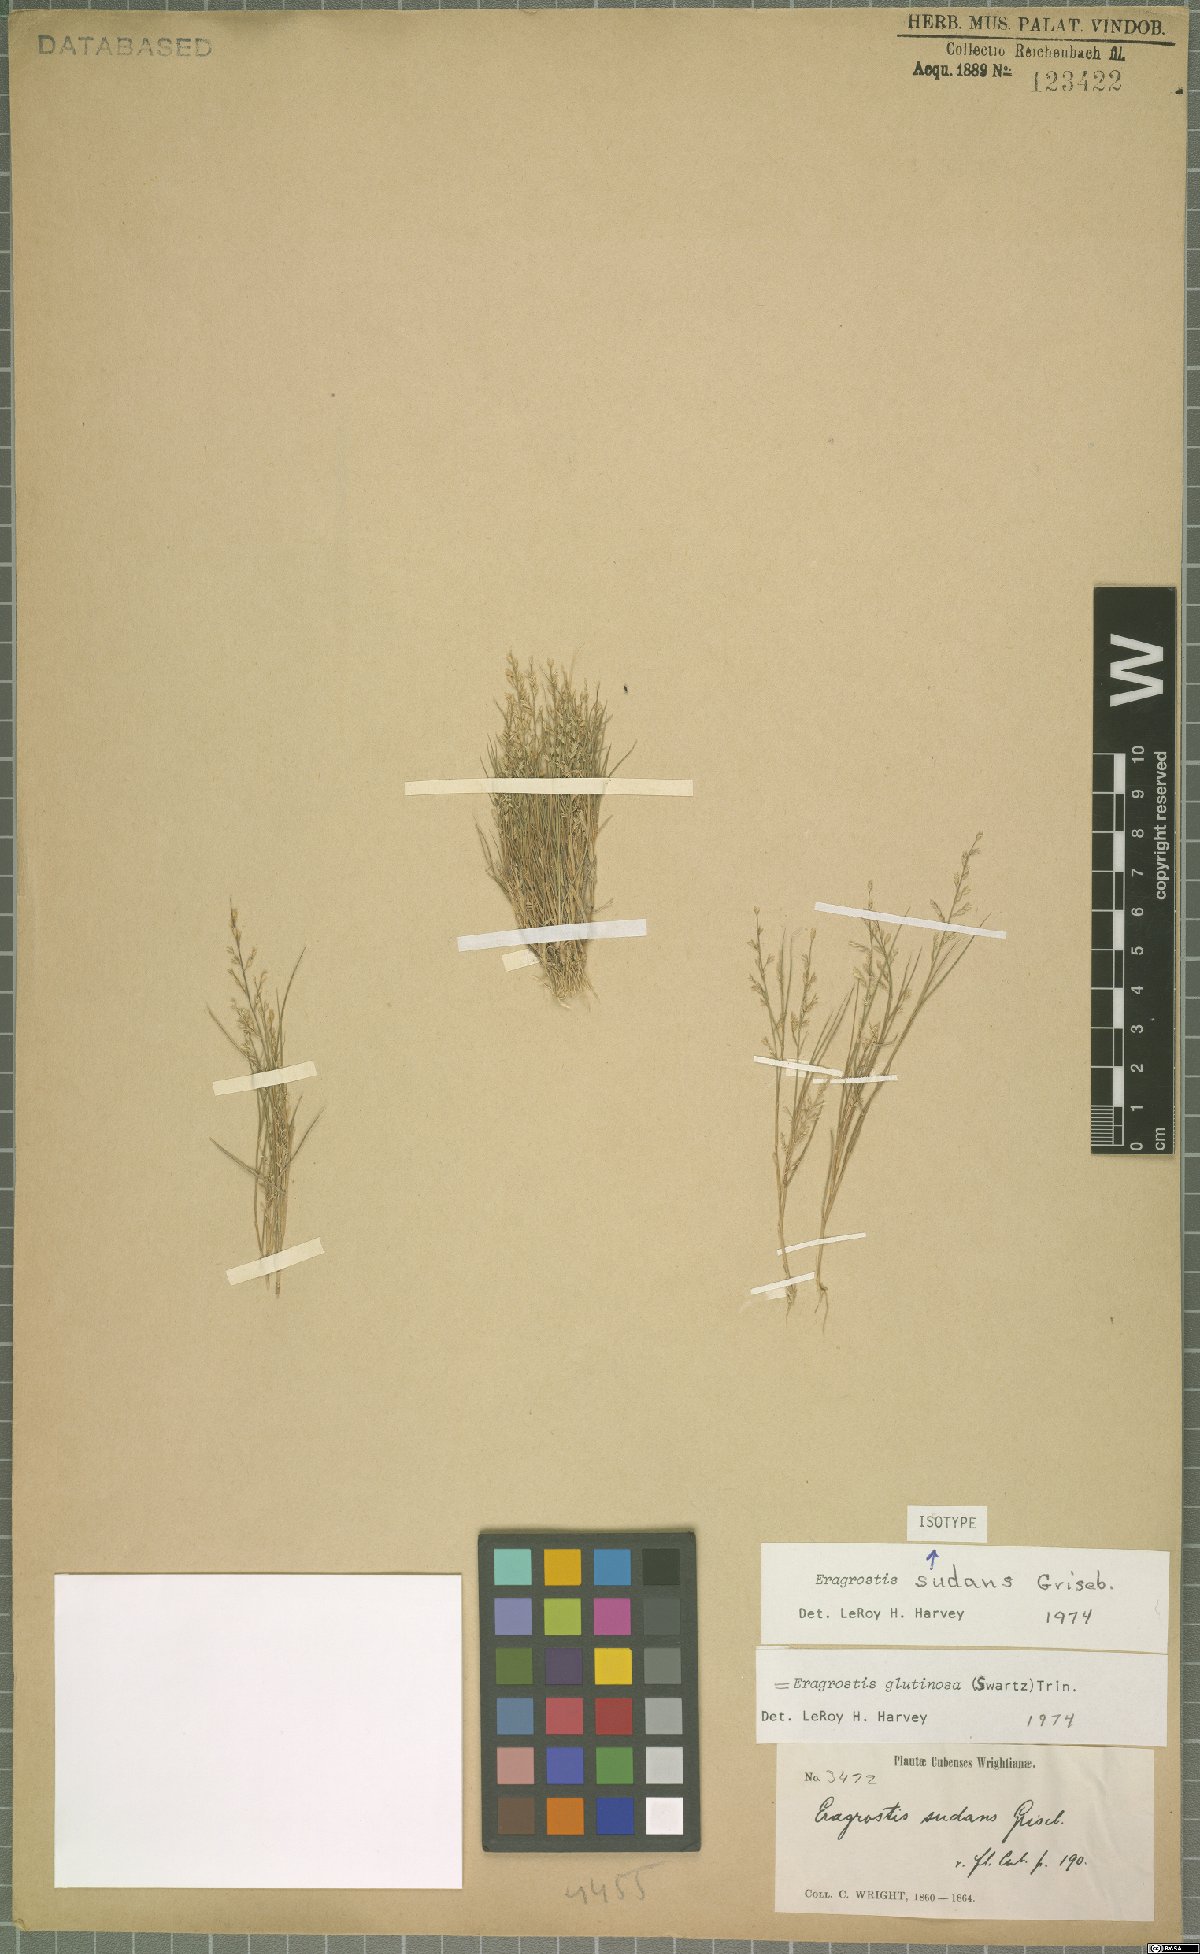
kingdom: Plantae
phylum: Tracheophyta
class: Liliopsida
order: Poales
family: Poaceae
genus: Eragrostis
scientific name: Eragrostis glutinosa
